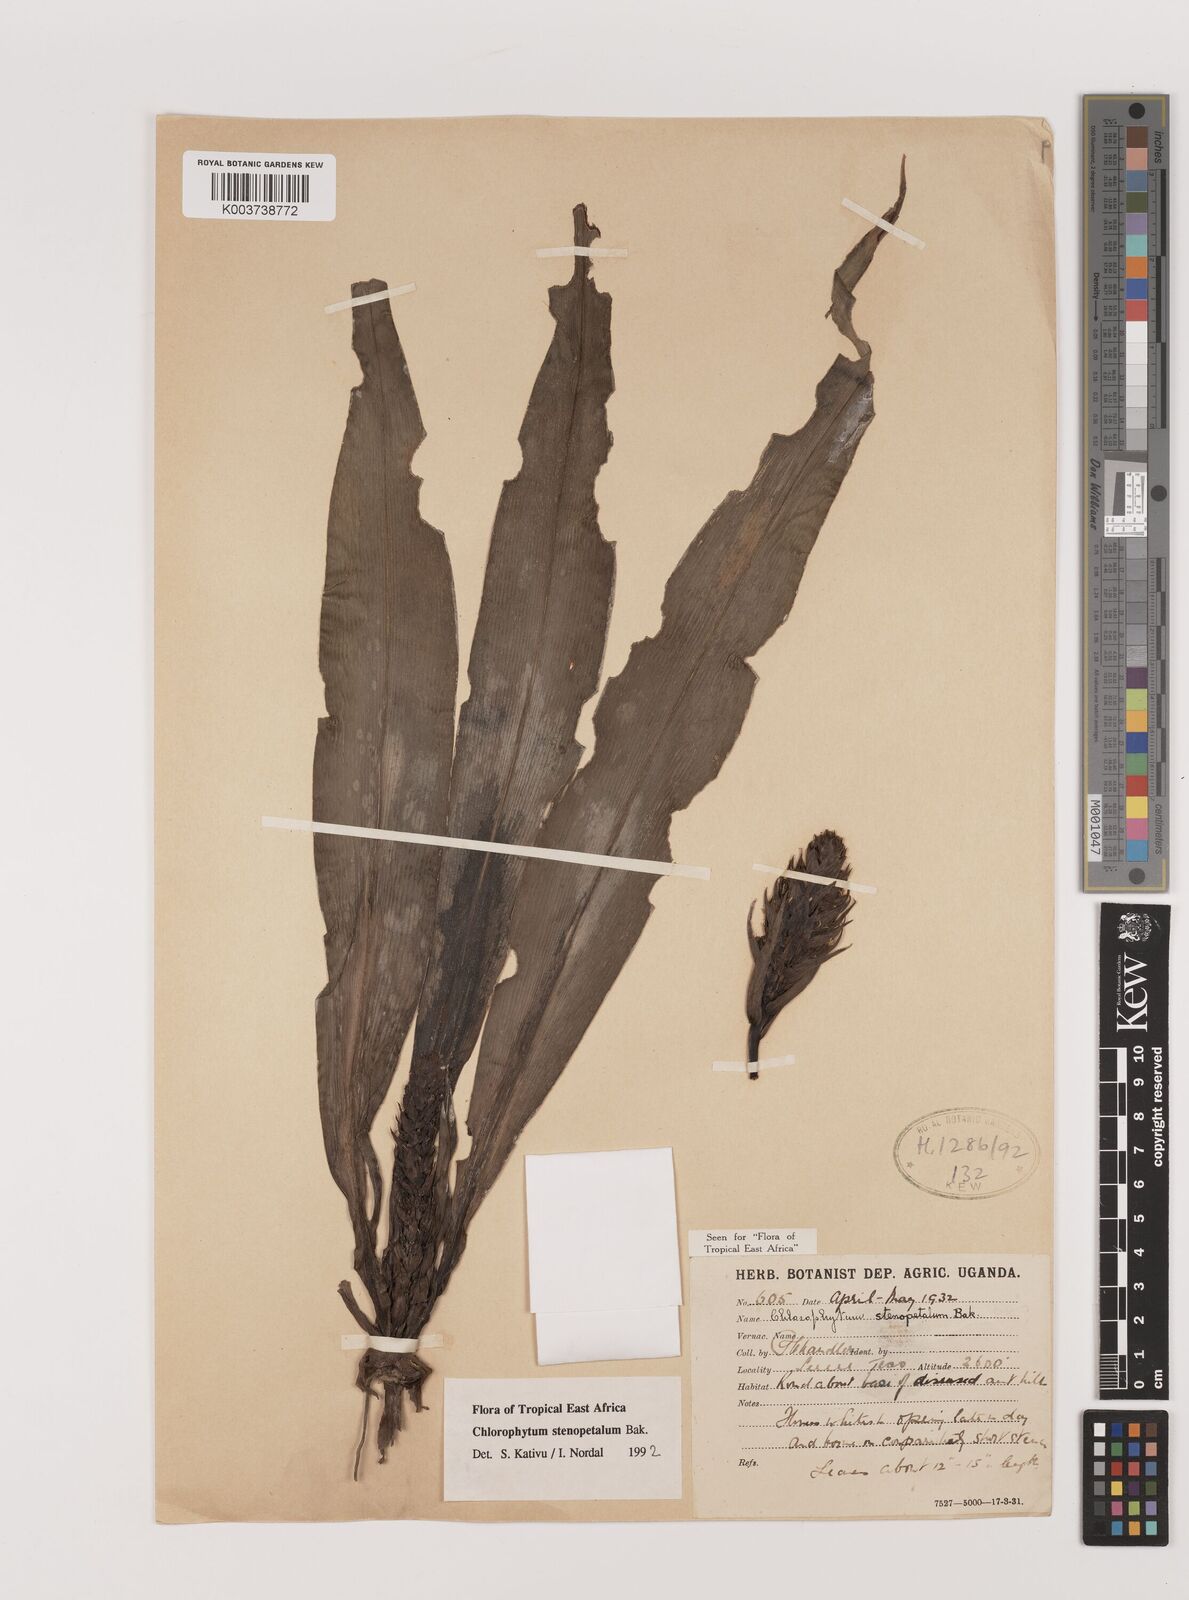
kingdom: Plantae
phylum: Tracheophyta
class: Liliopsida
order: Asparagales
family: Asparagaceae
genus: Chlorophytum
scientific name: Chlorophytum stenopetalum
